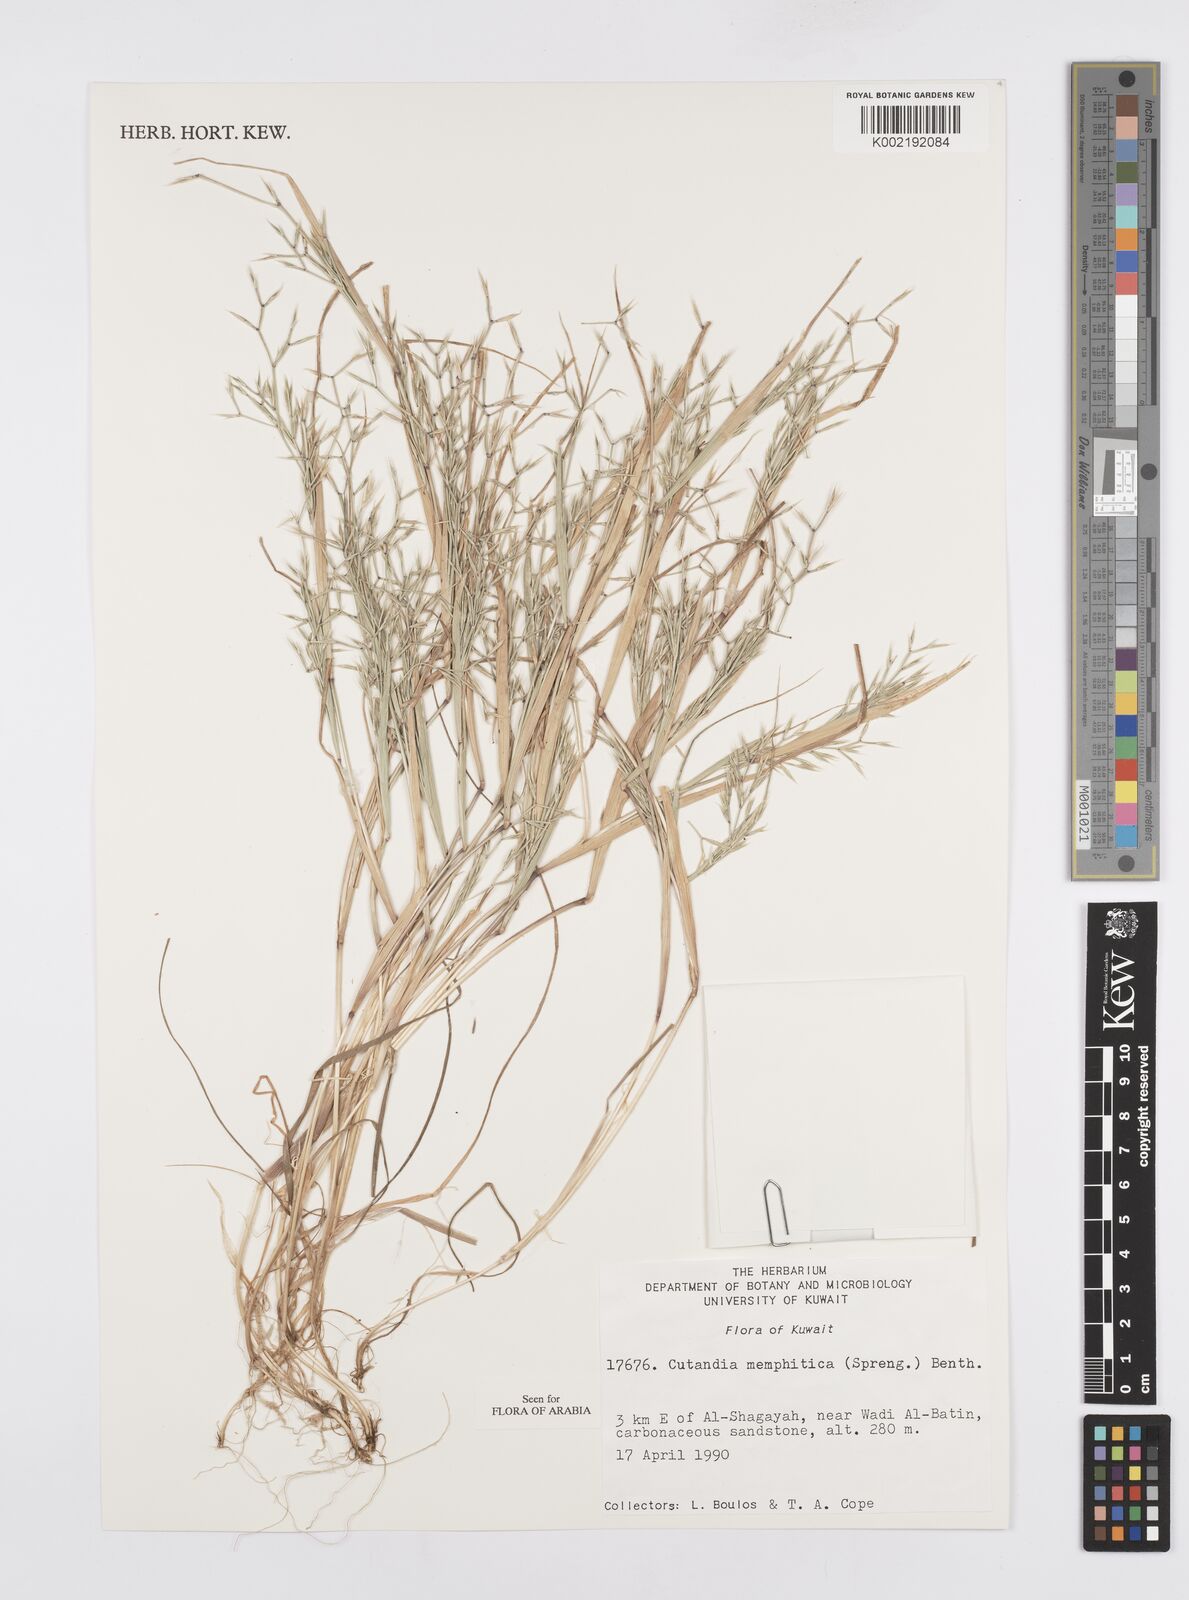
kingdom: Plantae
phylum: Tracheophyta
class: Liliopsida
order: Poales
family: Poaceae
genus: Cutandia
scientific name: Cutandia memphitica
